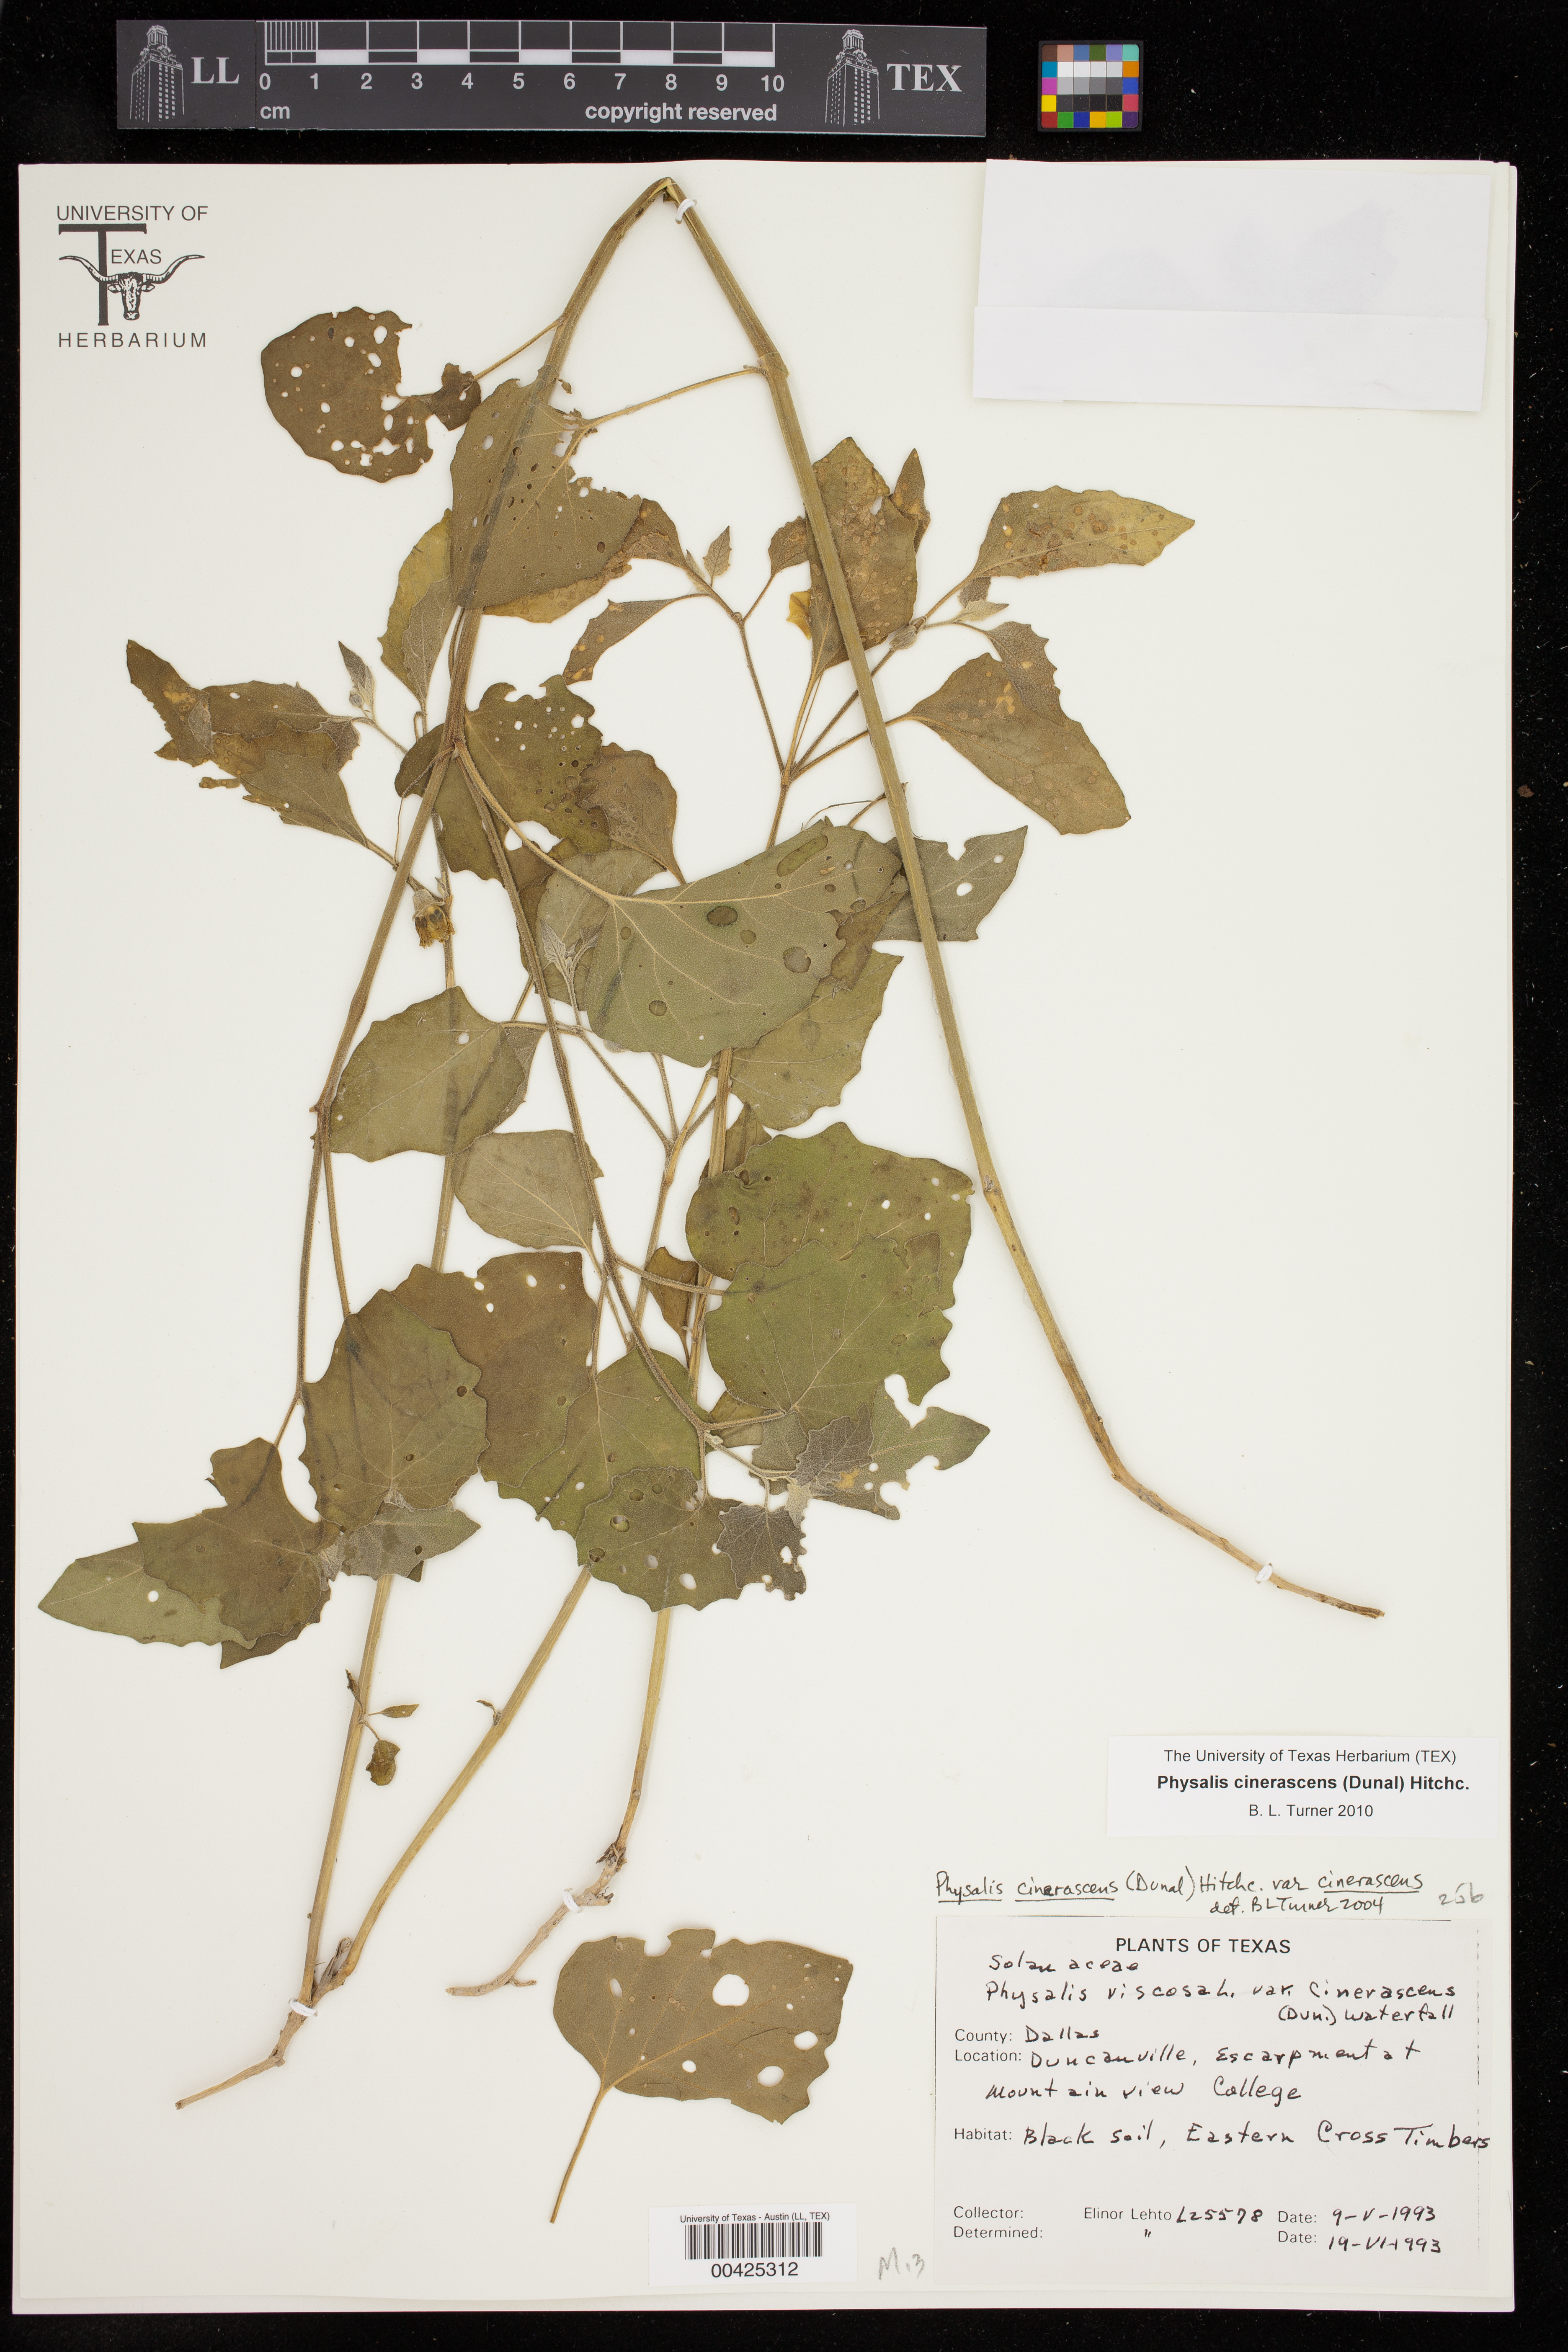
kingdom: Plantae
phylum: Tracheophyta
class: Magnoliopsida
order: Solanales
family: Solanaceae
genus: Physalis
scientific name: Physalis cinerascens
